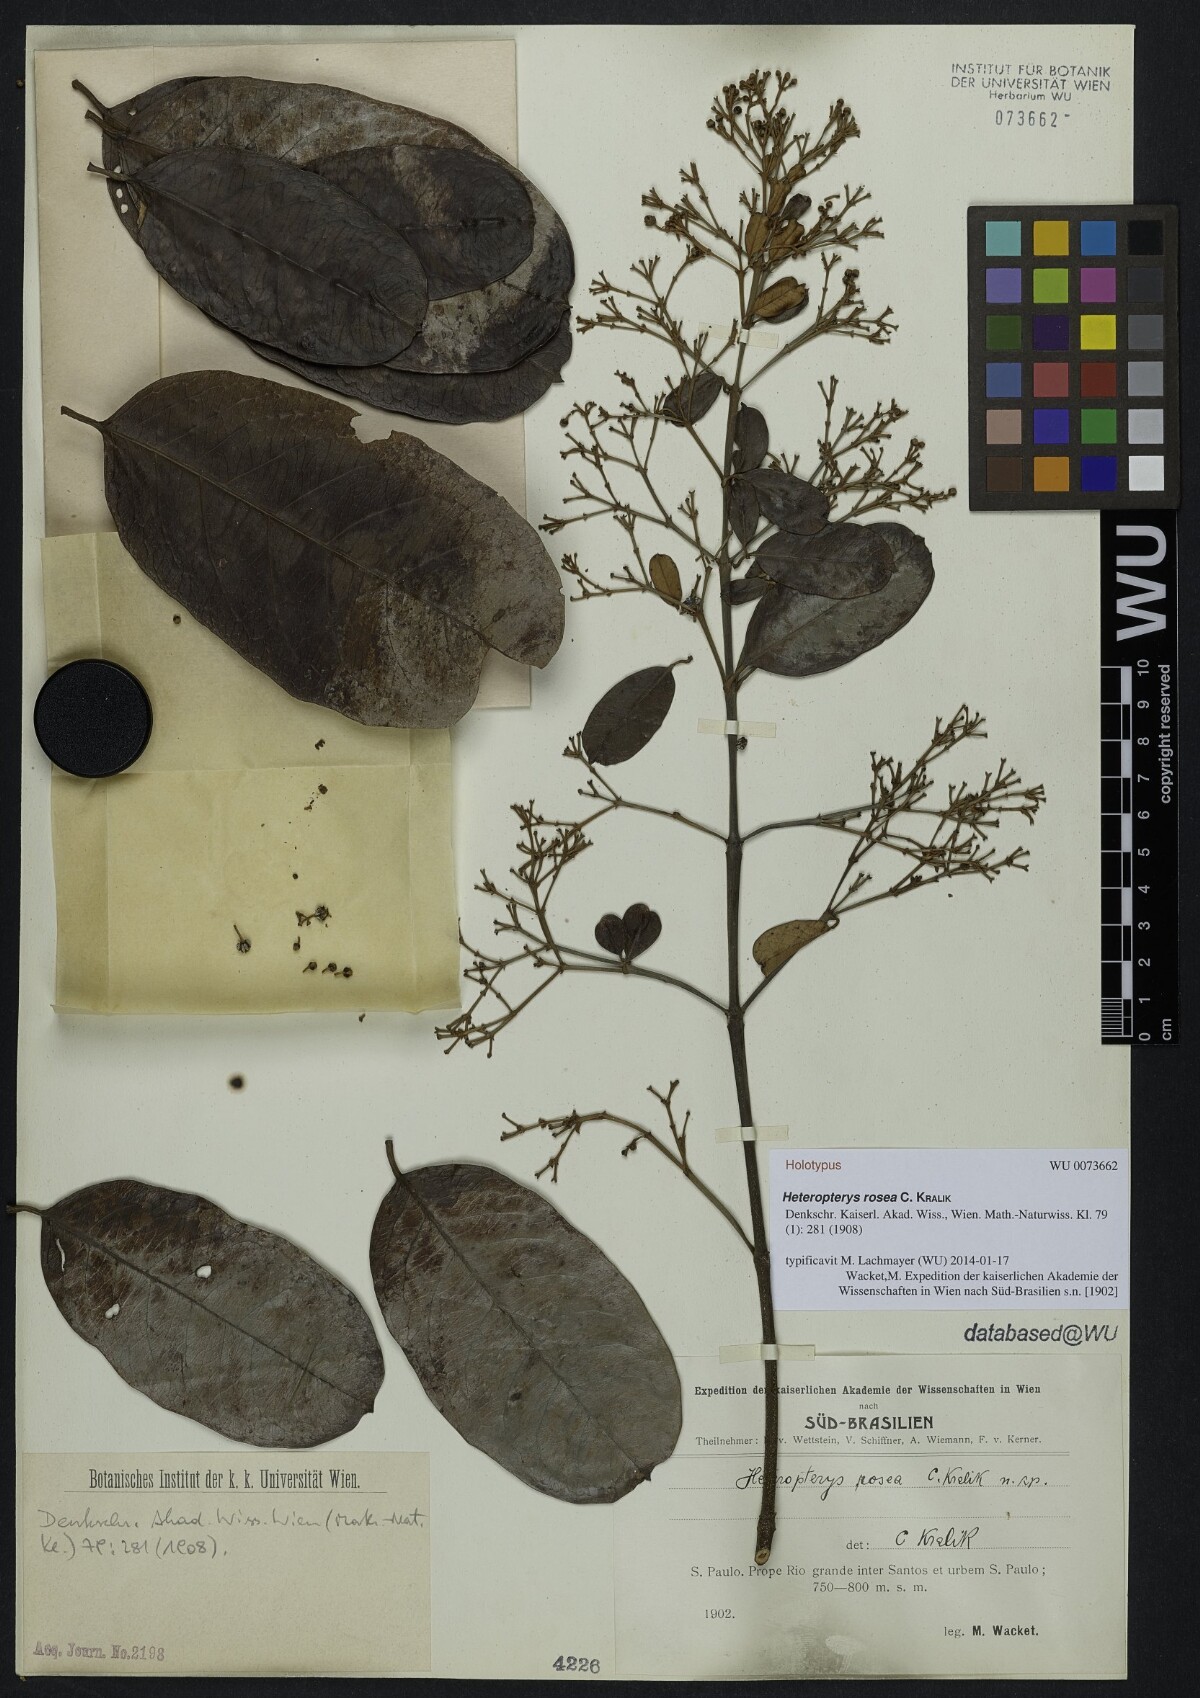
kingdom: Plantae
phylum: Tracheophyta
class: Magnoliopsida
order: Malpighiales
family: Malpighiaceae
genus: Heteropterys
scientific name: Heteropterys rosea
